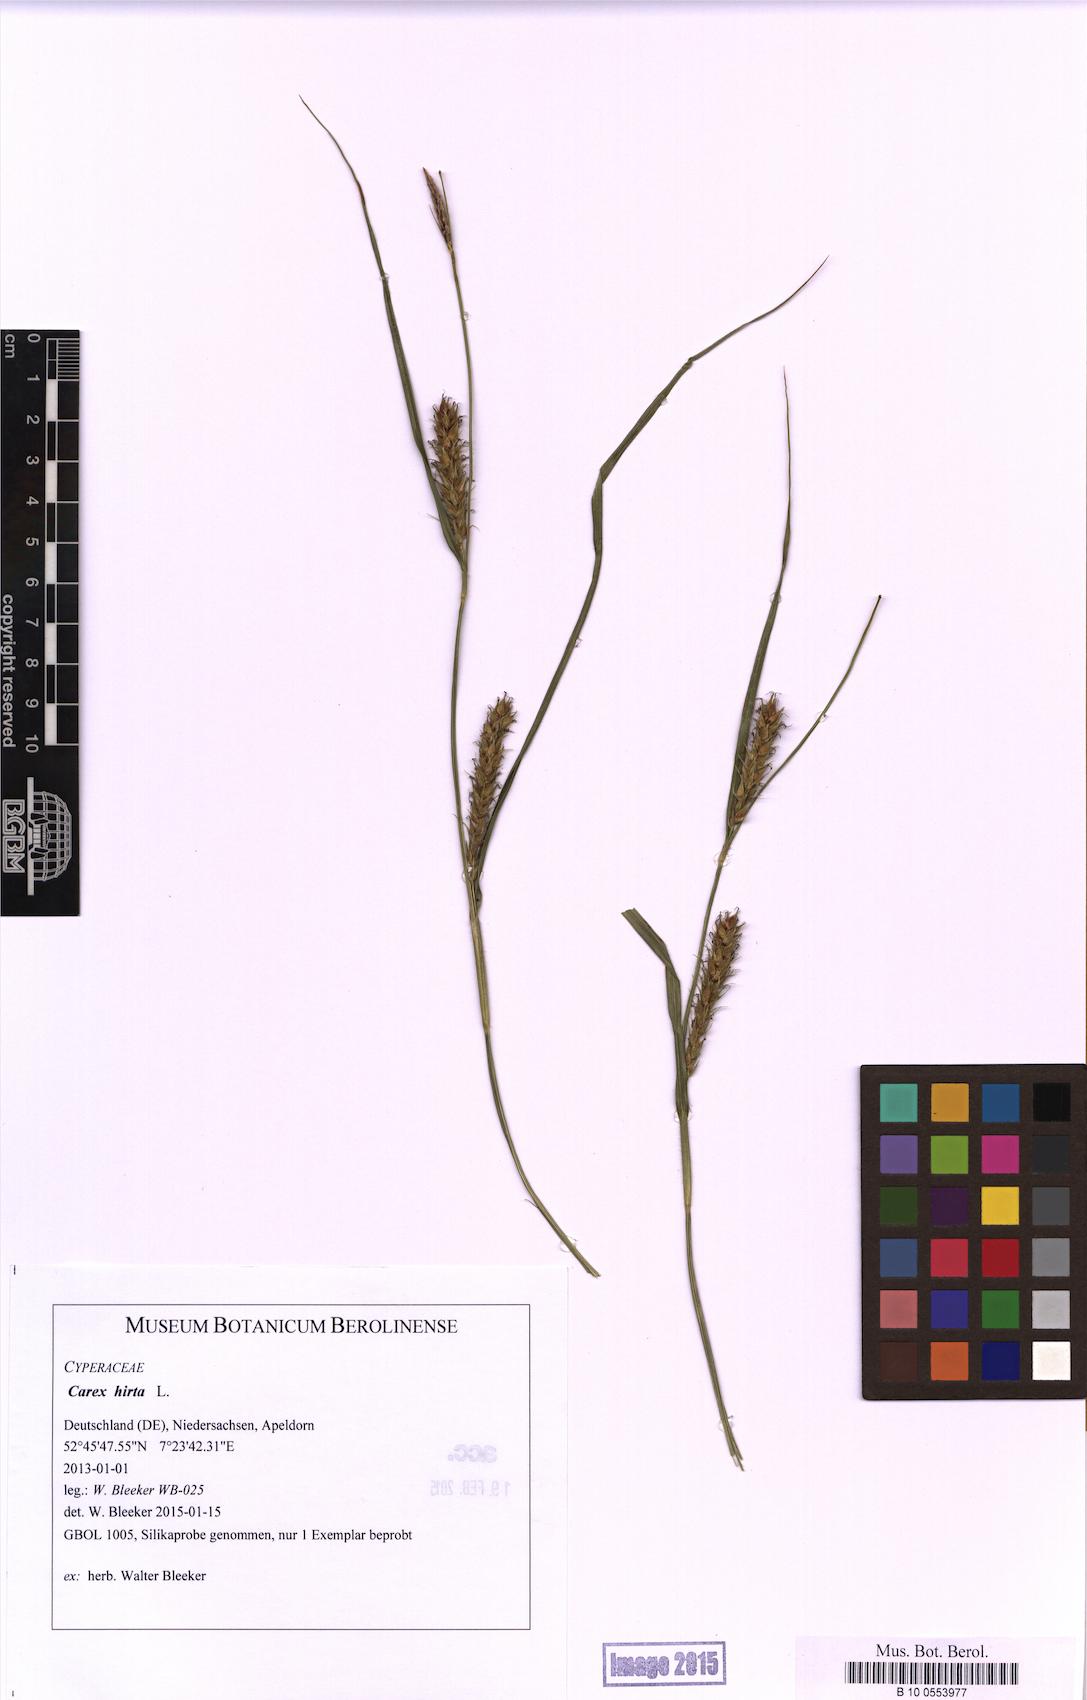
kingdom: Plantae
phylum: Tracheophyta
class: Liliopsida
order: Poales
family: Cyperaceae
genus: Carex
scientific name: Carex hirta
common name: Hairy sedge
